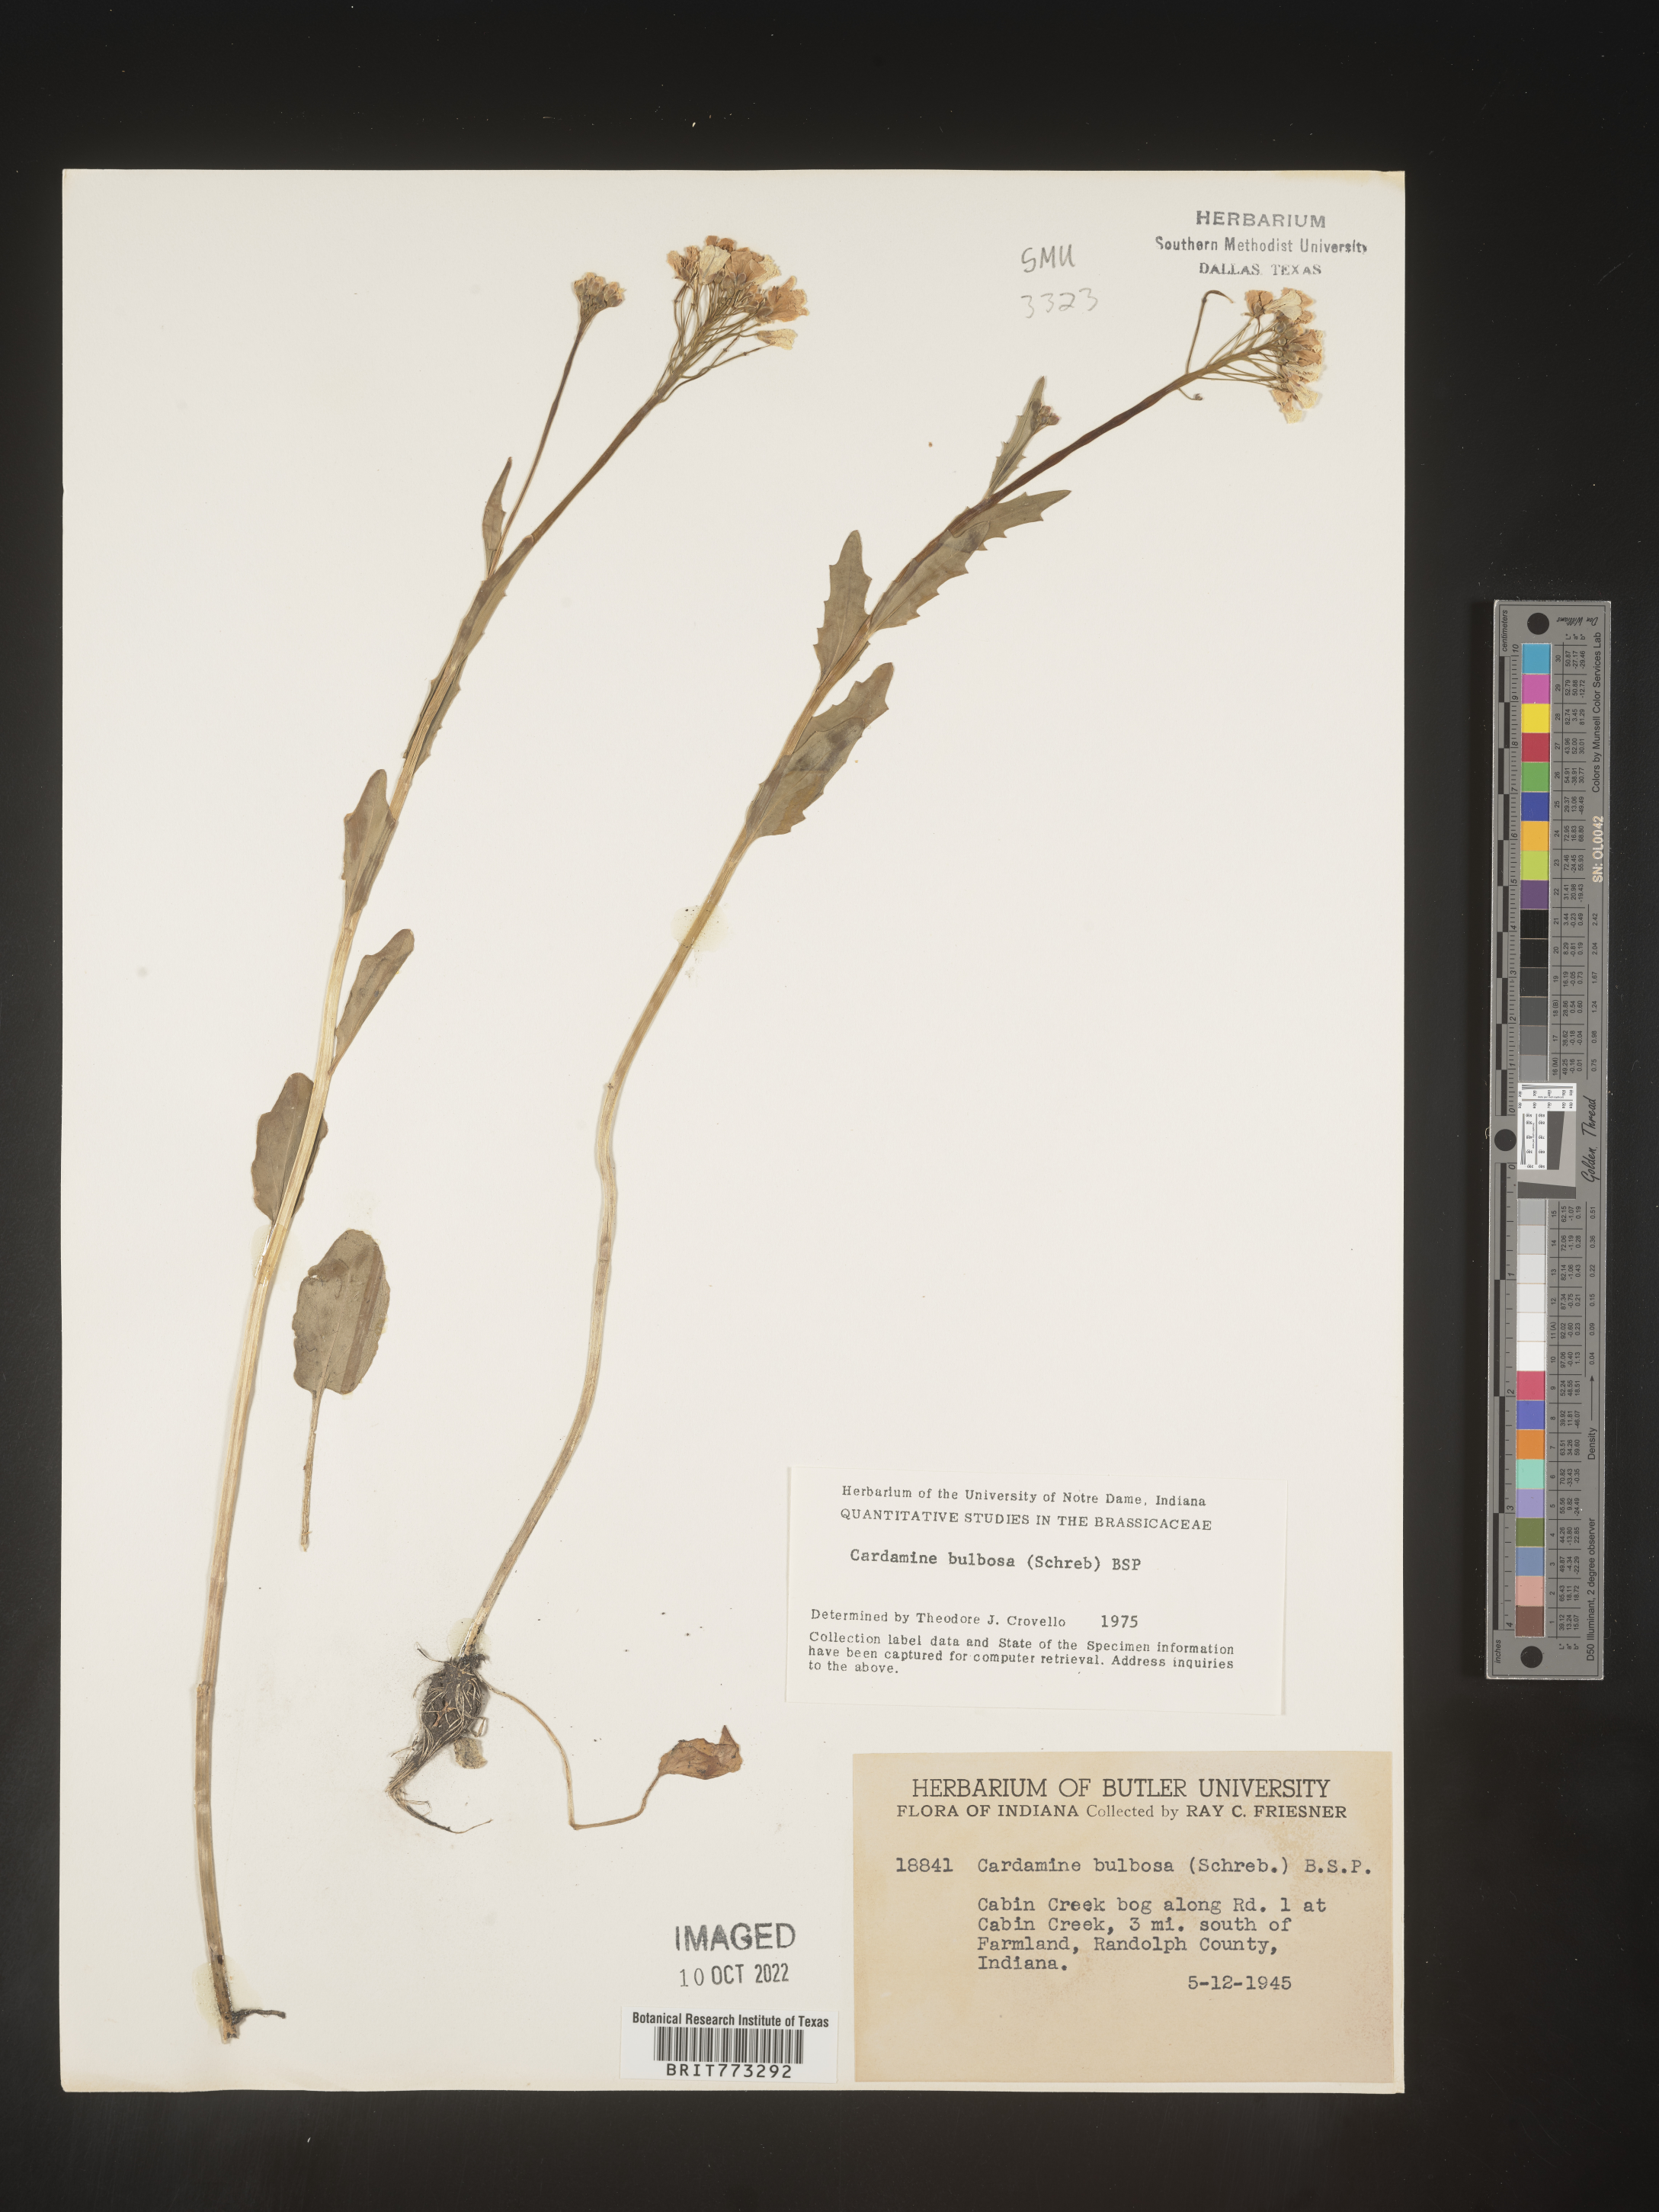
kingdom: Plantae
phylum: Tracheophyta
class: Magnoliopsida
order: Brassicales
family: Brassicaceae
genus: Cardamine
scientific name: Cardamine bulbosa
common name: Spring cress
